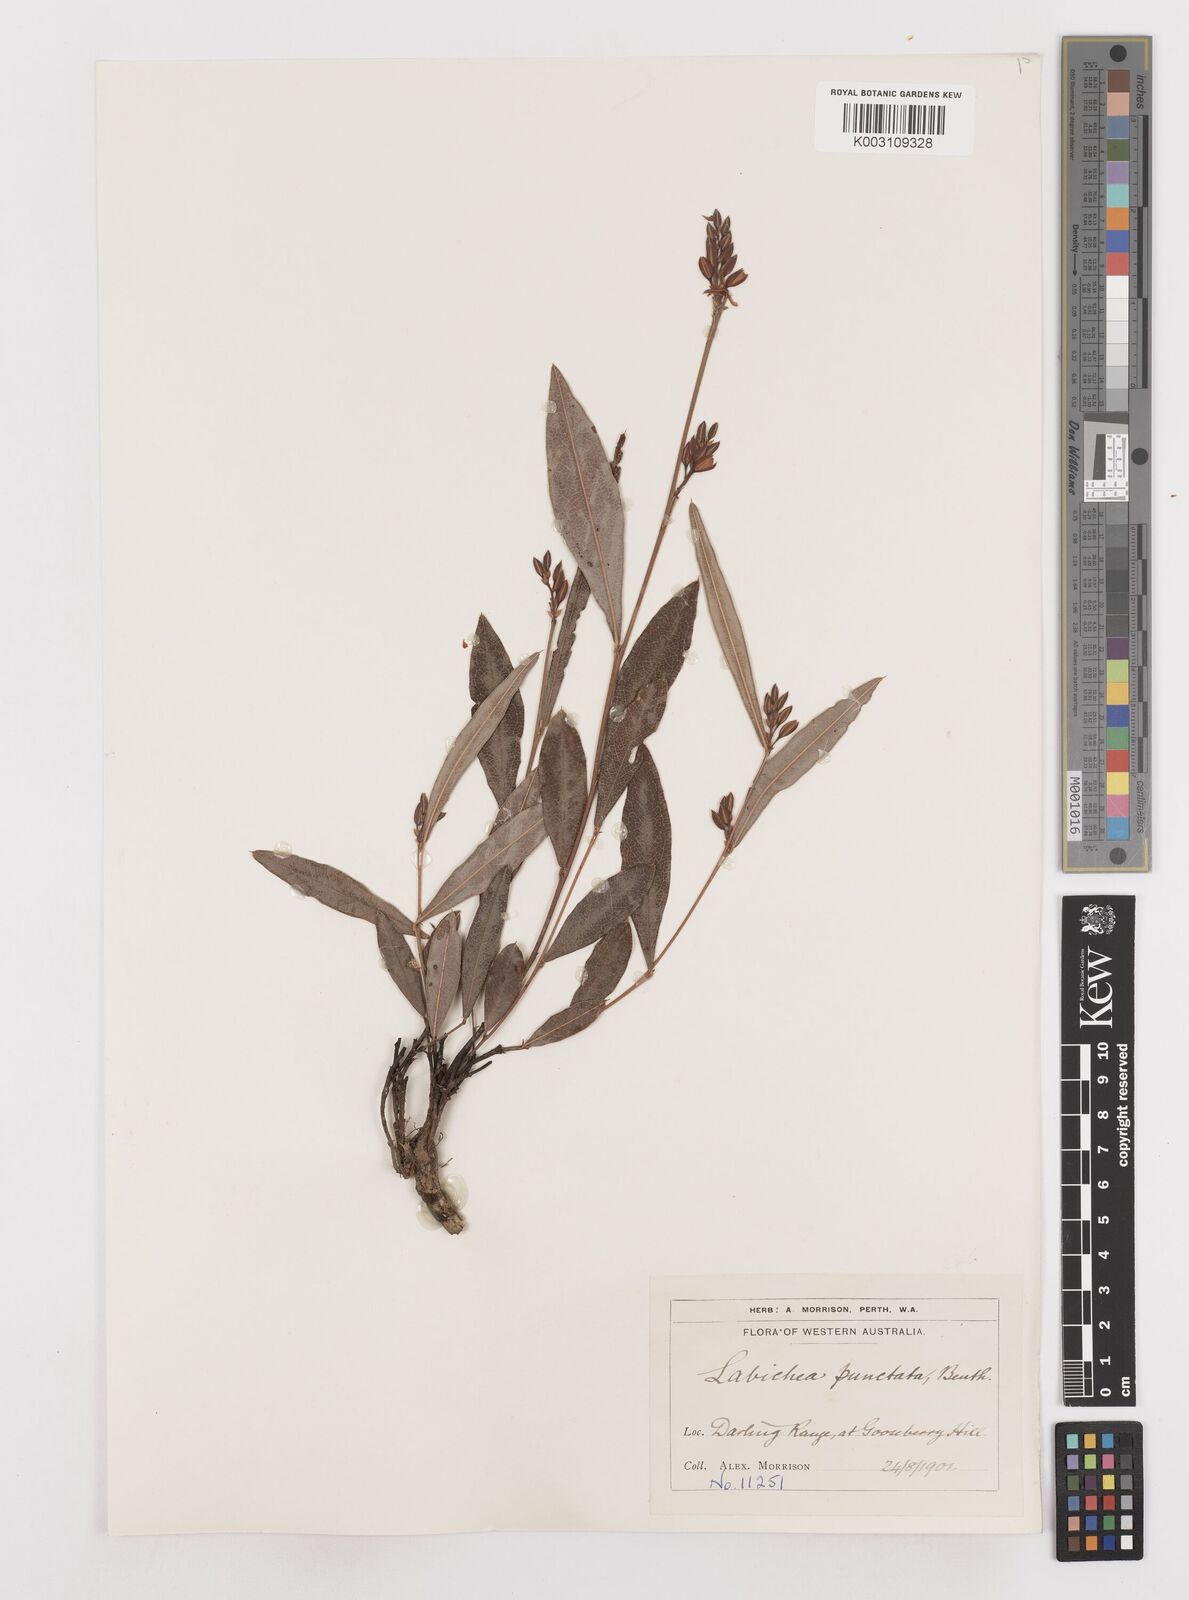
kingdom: Plantae
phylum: Tracheophyta
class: Magnoliopsida
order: Fabales
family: Fabaceae
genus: Labichea
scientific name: Labichea punctata
